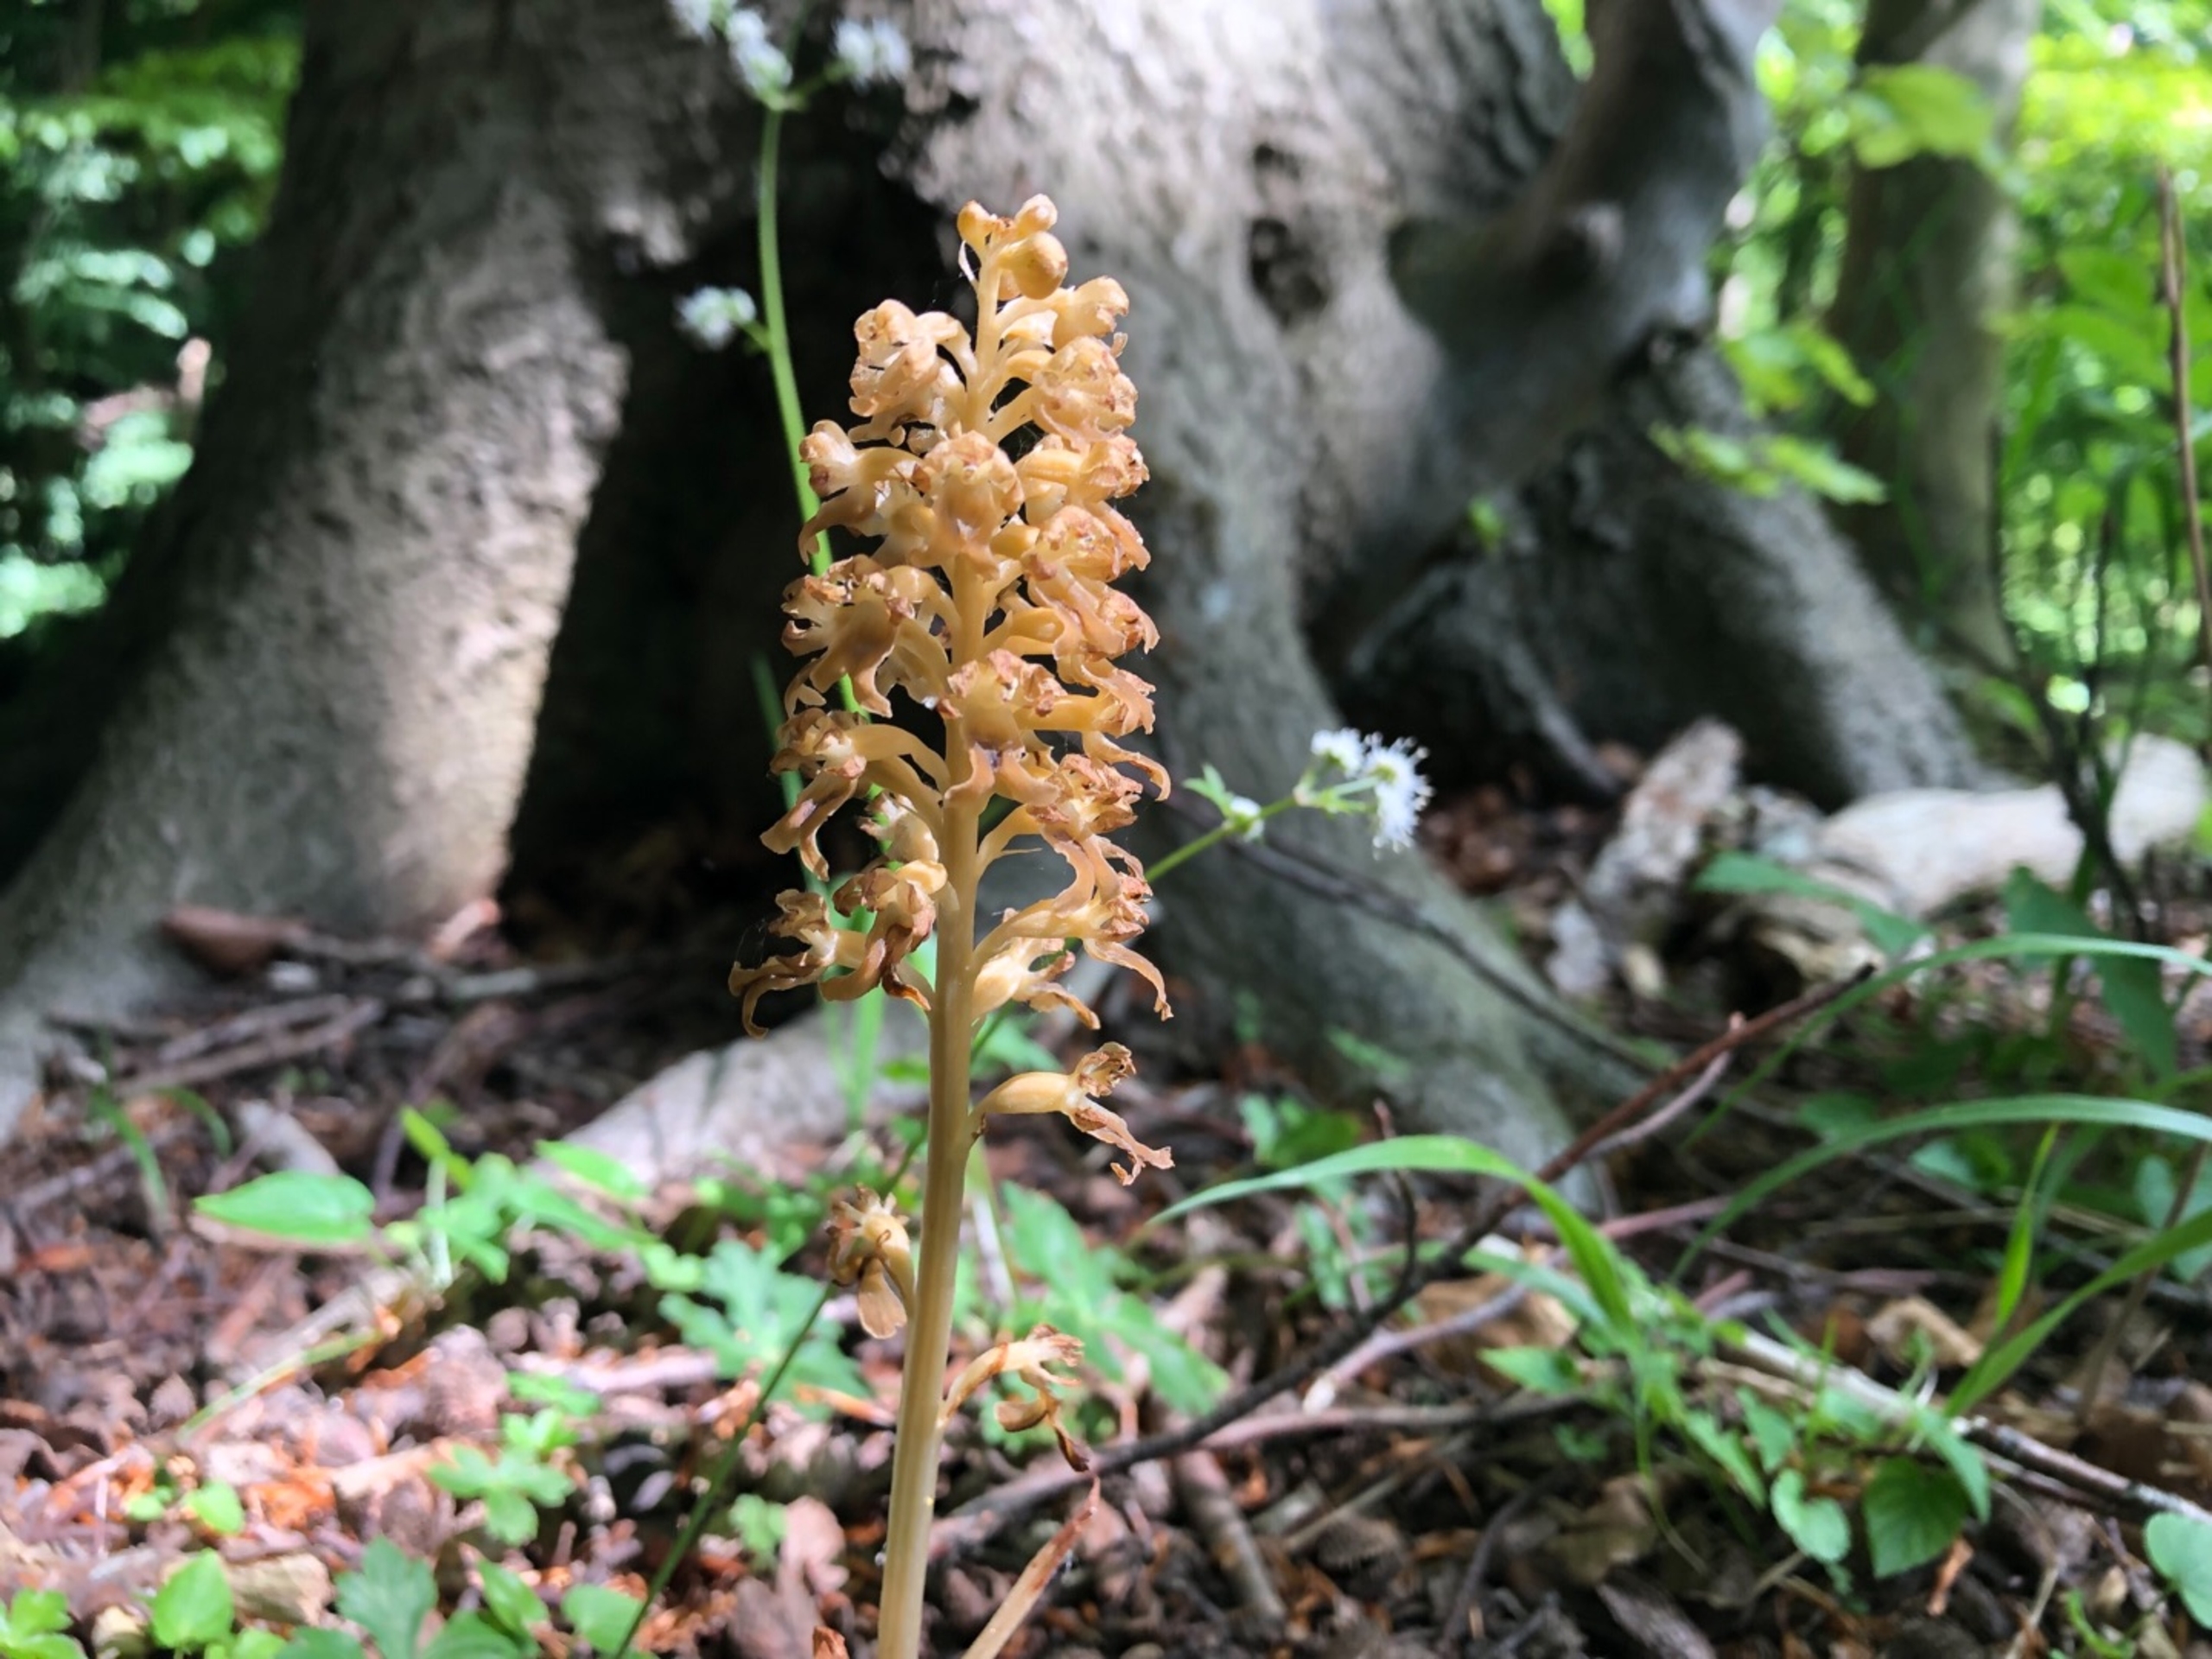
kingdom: Plantae
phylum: Tracheophyta
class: Liliopsida
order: Asparagales
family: Orchidaceae
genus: Neottia
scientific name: Neottia nidus-avis
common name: Rederod
